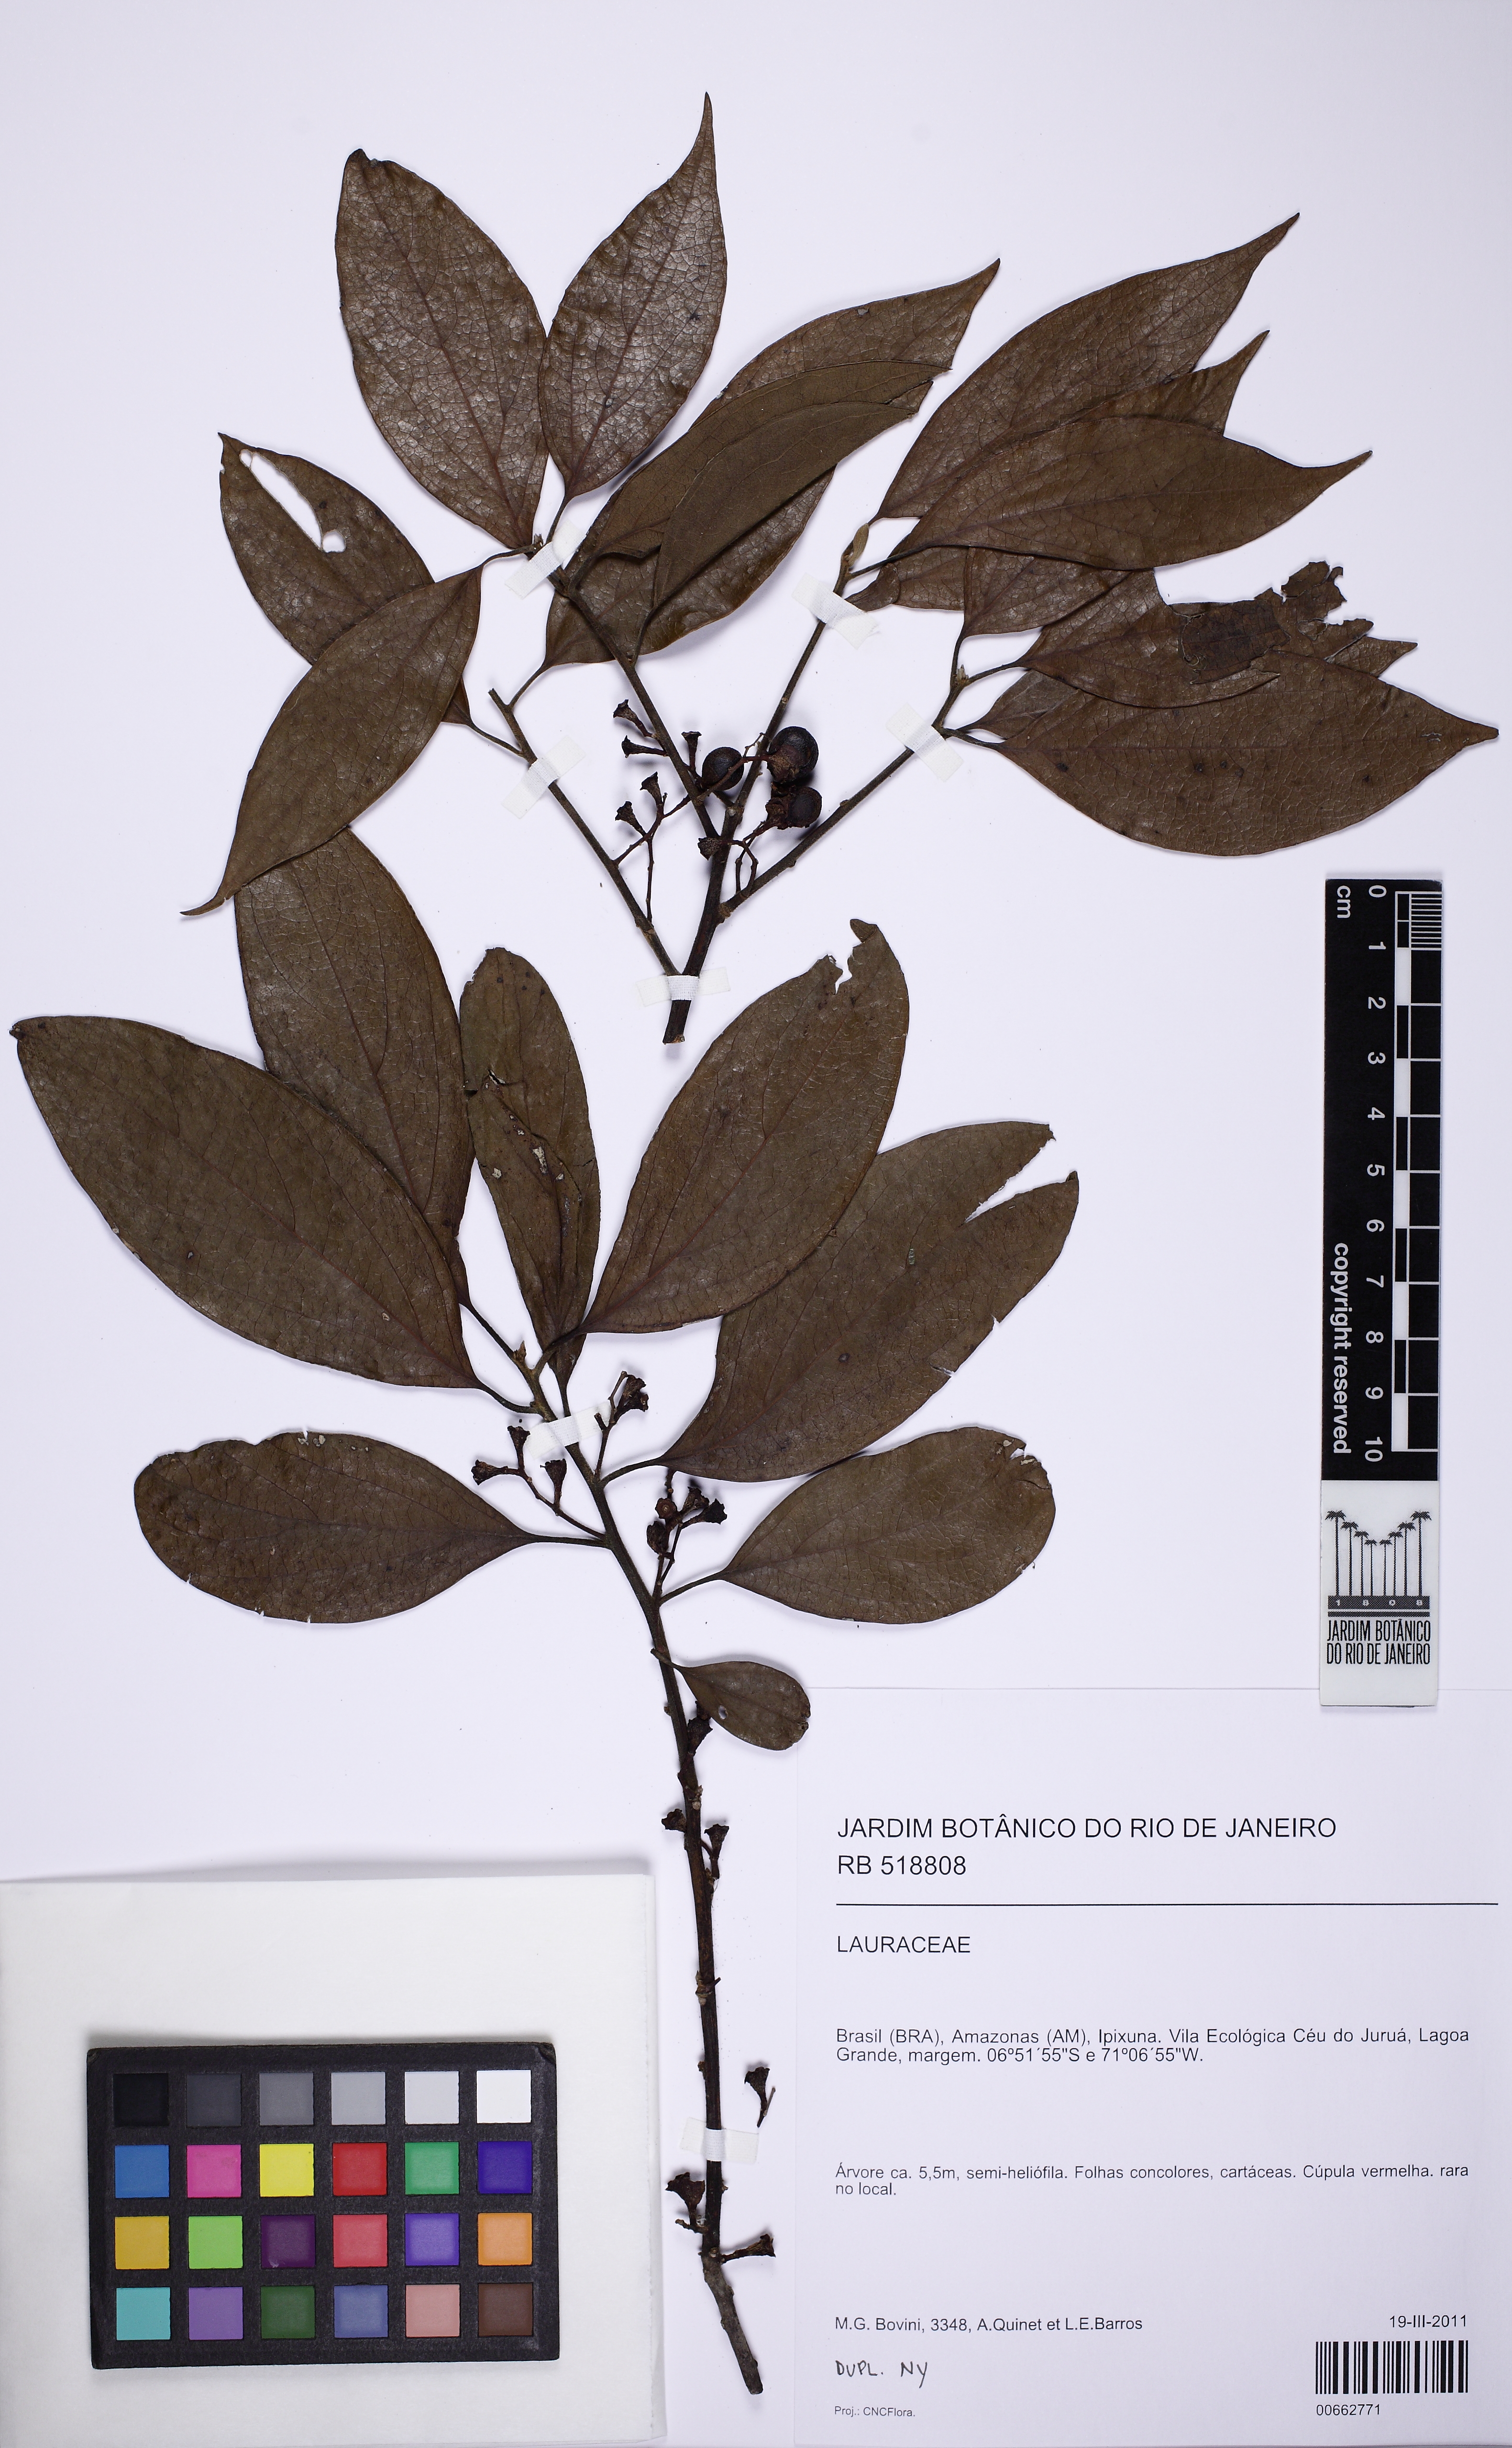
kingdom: Plantae
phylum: Tracheophyta
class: Magnoliopsida
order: Laurales
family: Lauraceae
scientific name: Lauraceae
